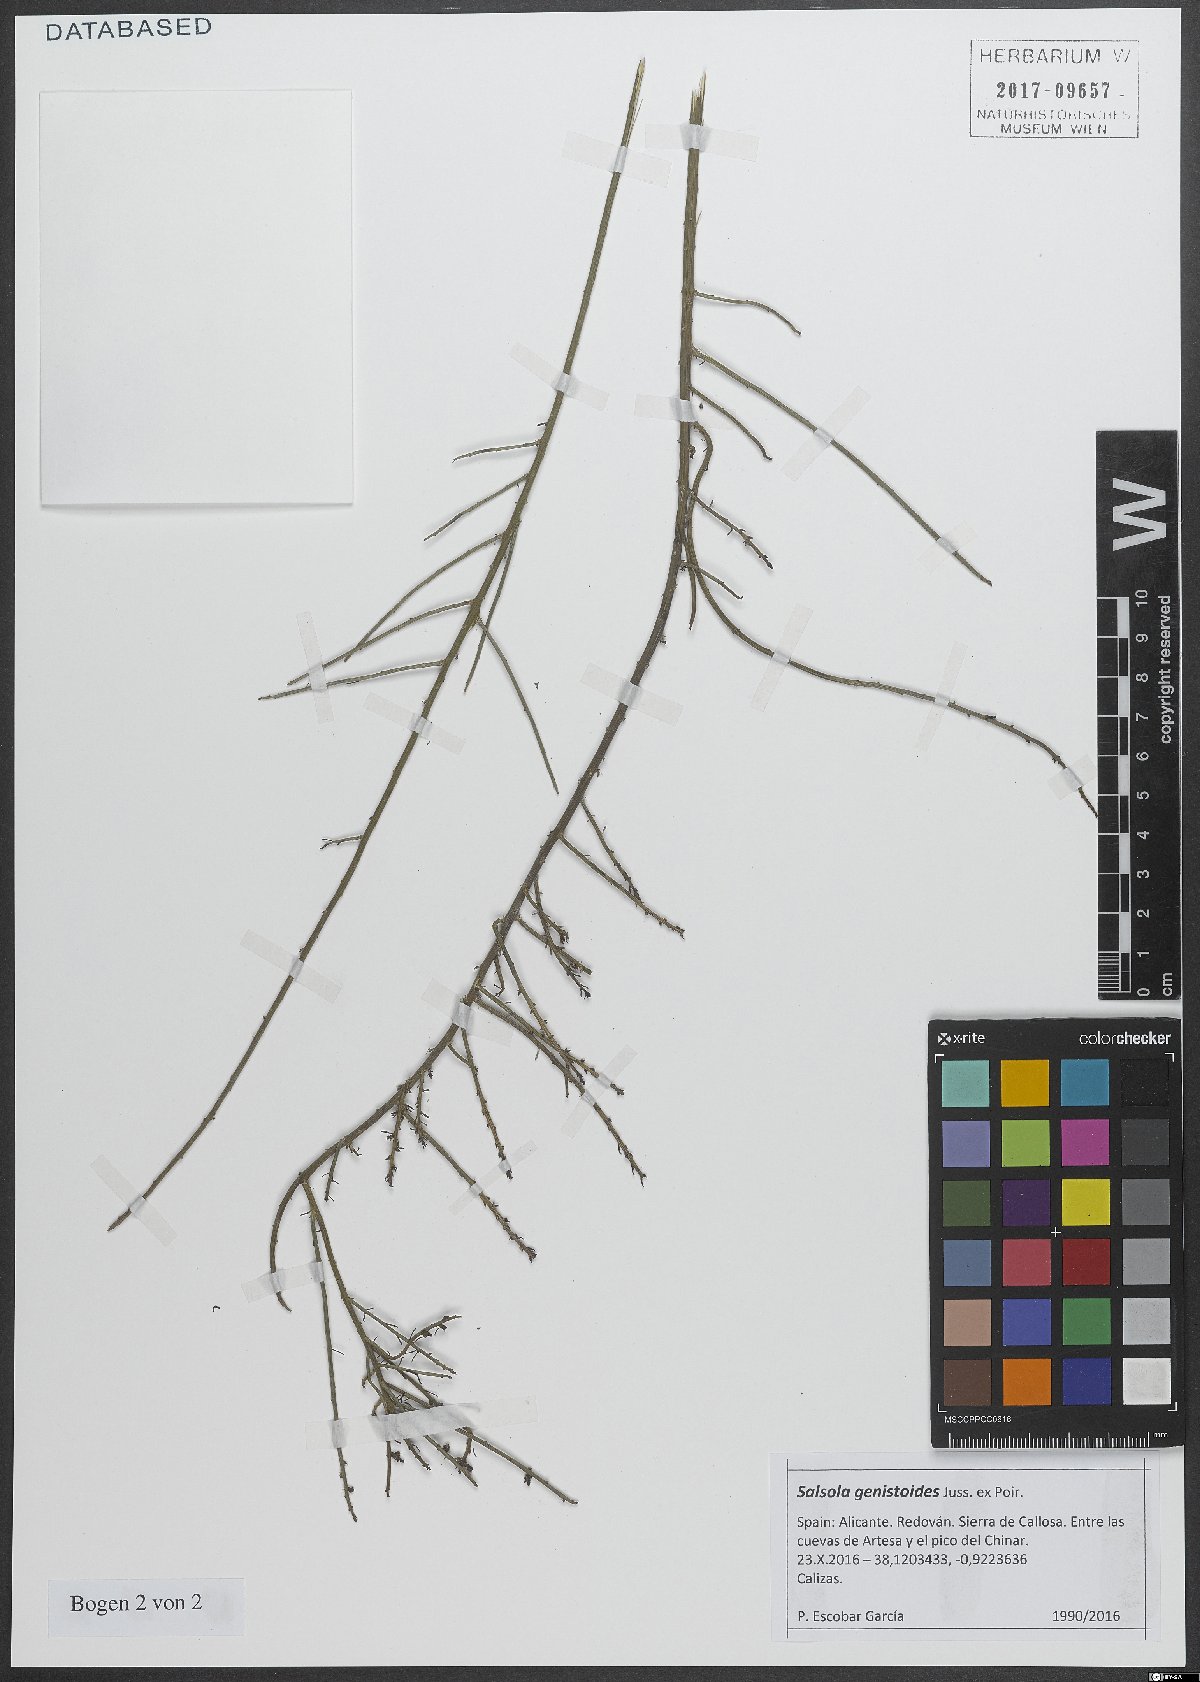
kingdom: Plantae
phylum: Tracheophyta
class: Magnoliopsida
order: Caryophyllales
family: Amaranthaceae
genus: Caroxylon
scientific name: Caroxylon genistoides
